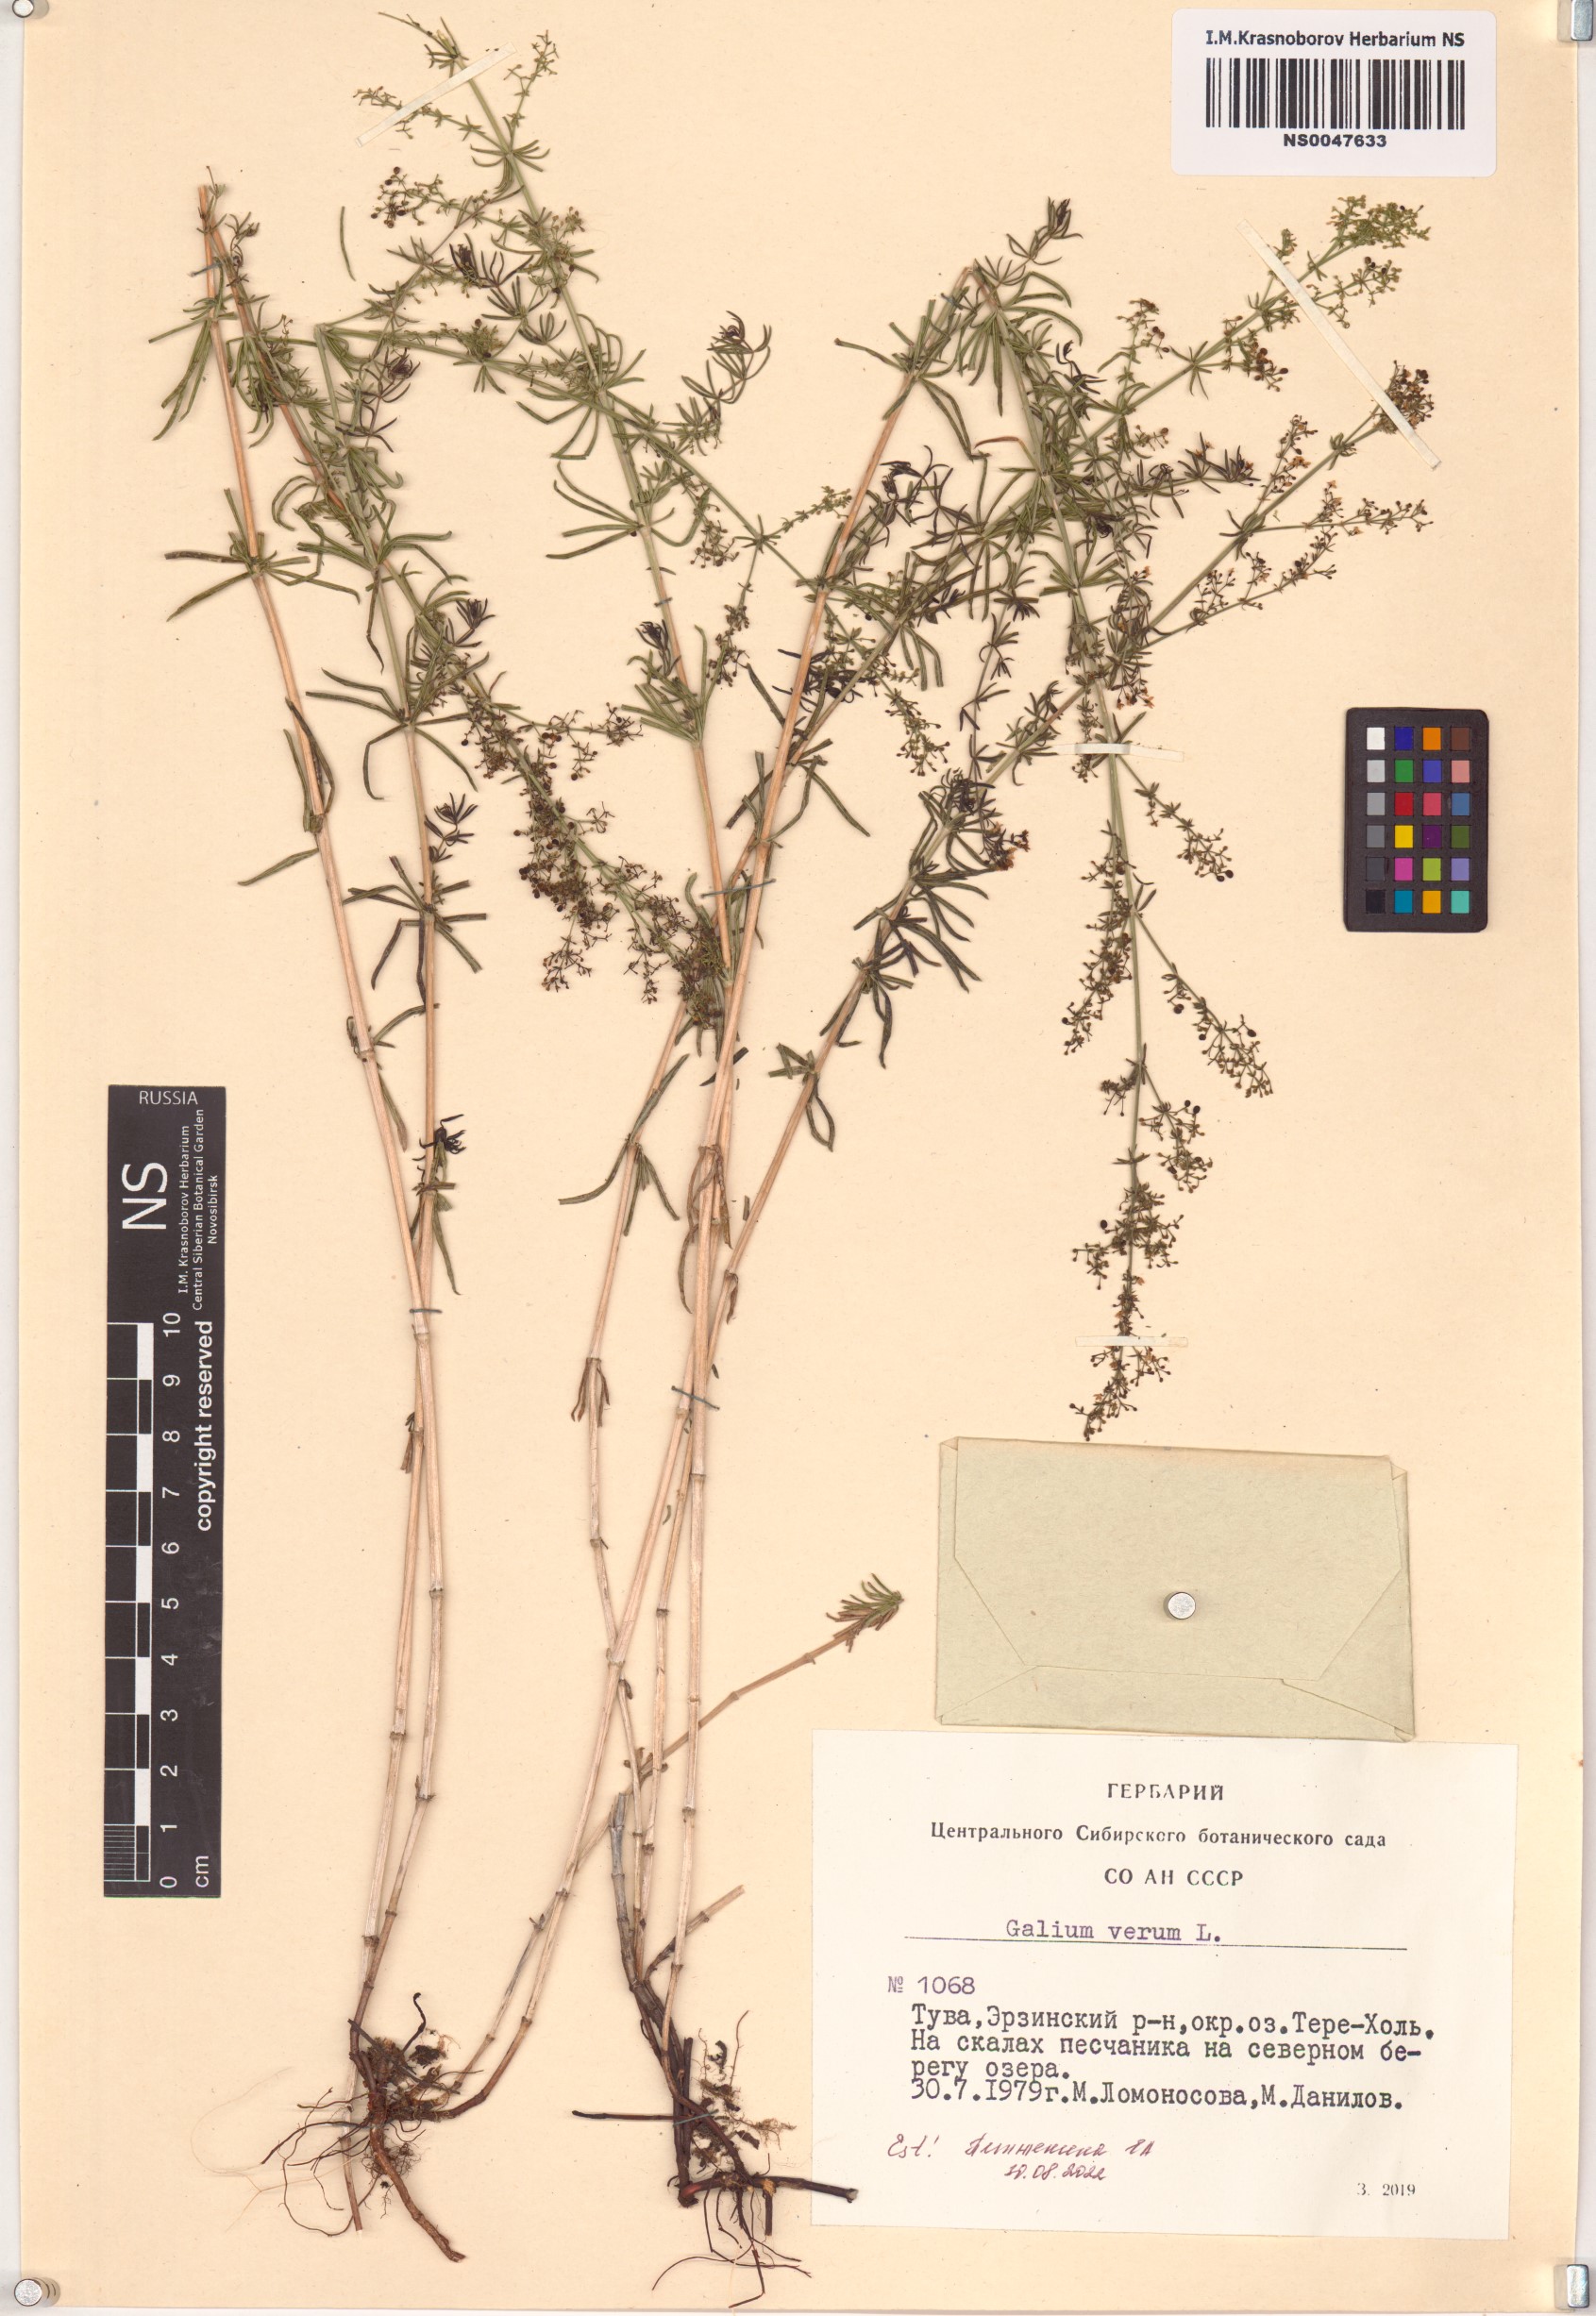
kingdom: Plantae
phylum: Tracheophyta
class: Magnoliopsida
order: Gentianales
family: Rubiaceae
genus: Galium
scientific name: Galium verum
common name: Lady's bedstraw
